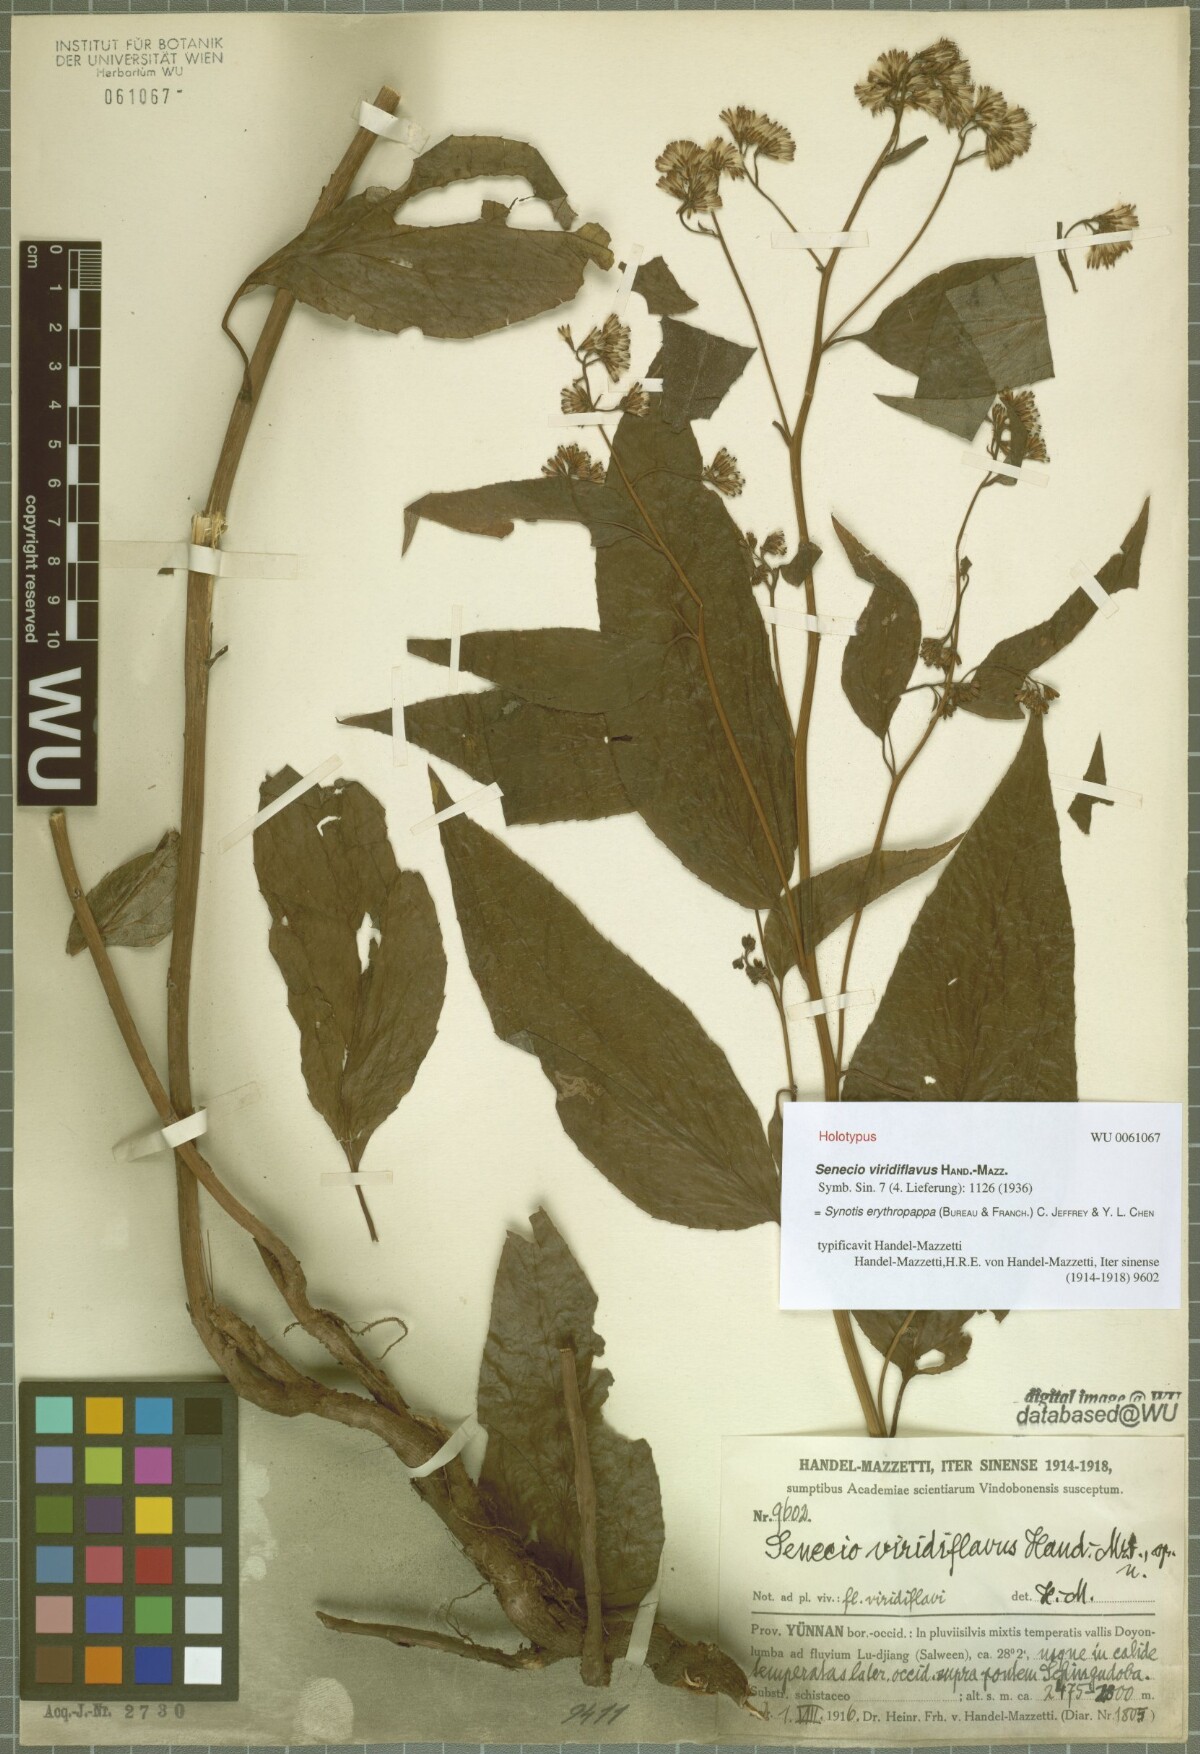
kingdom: Plantae
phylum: Tracheophyta
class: Magnoliopsida
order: Asterales
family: Asteraceae
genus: Synotis
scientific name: Synotis erythropappa
